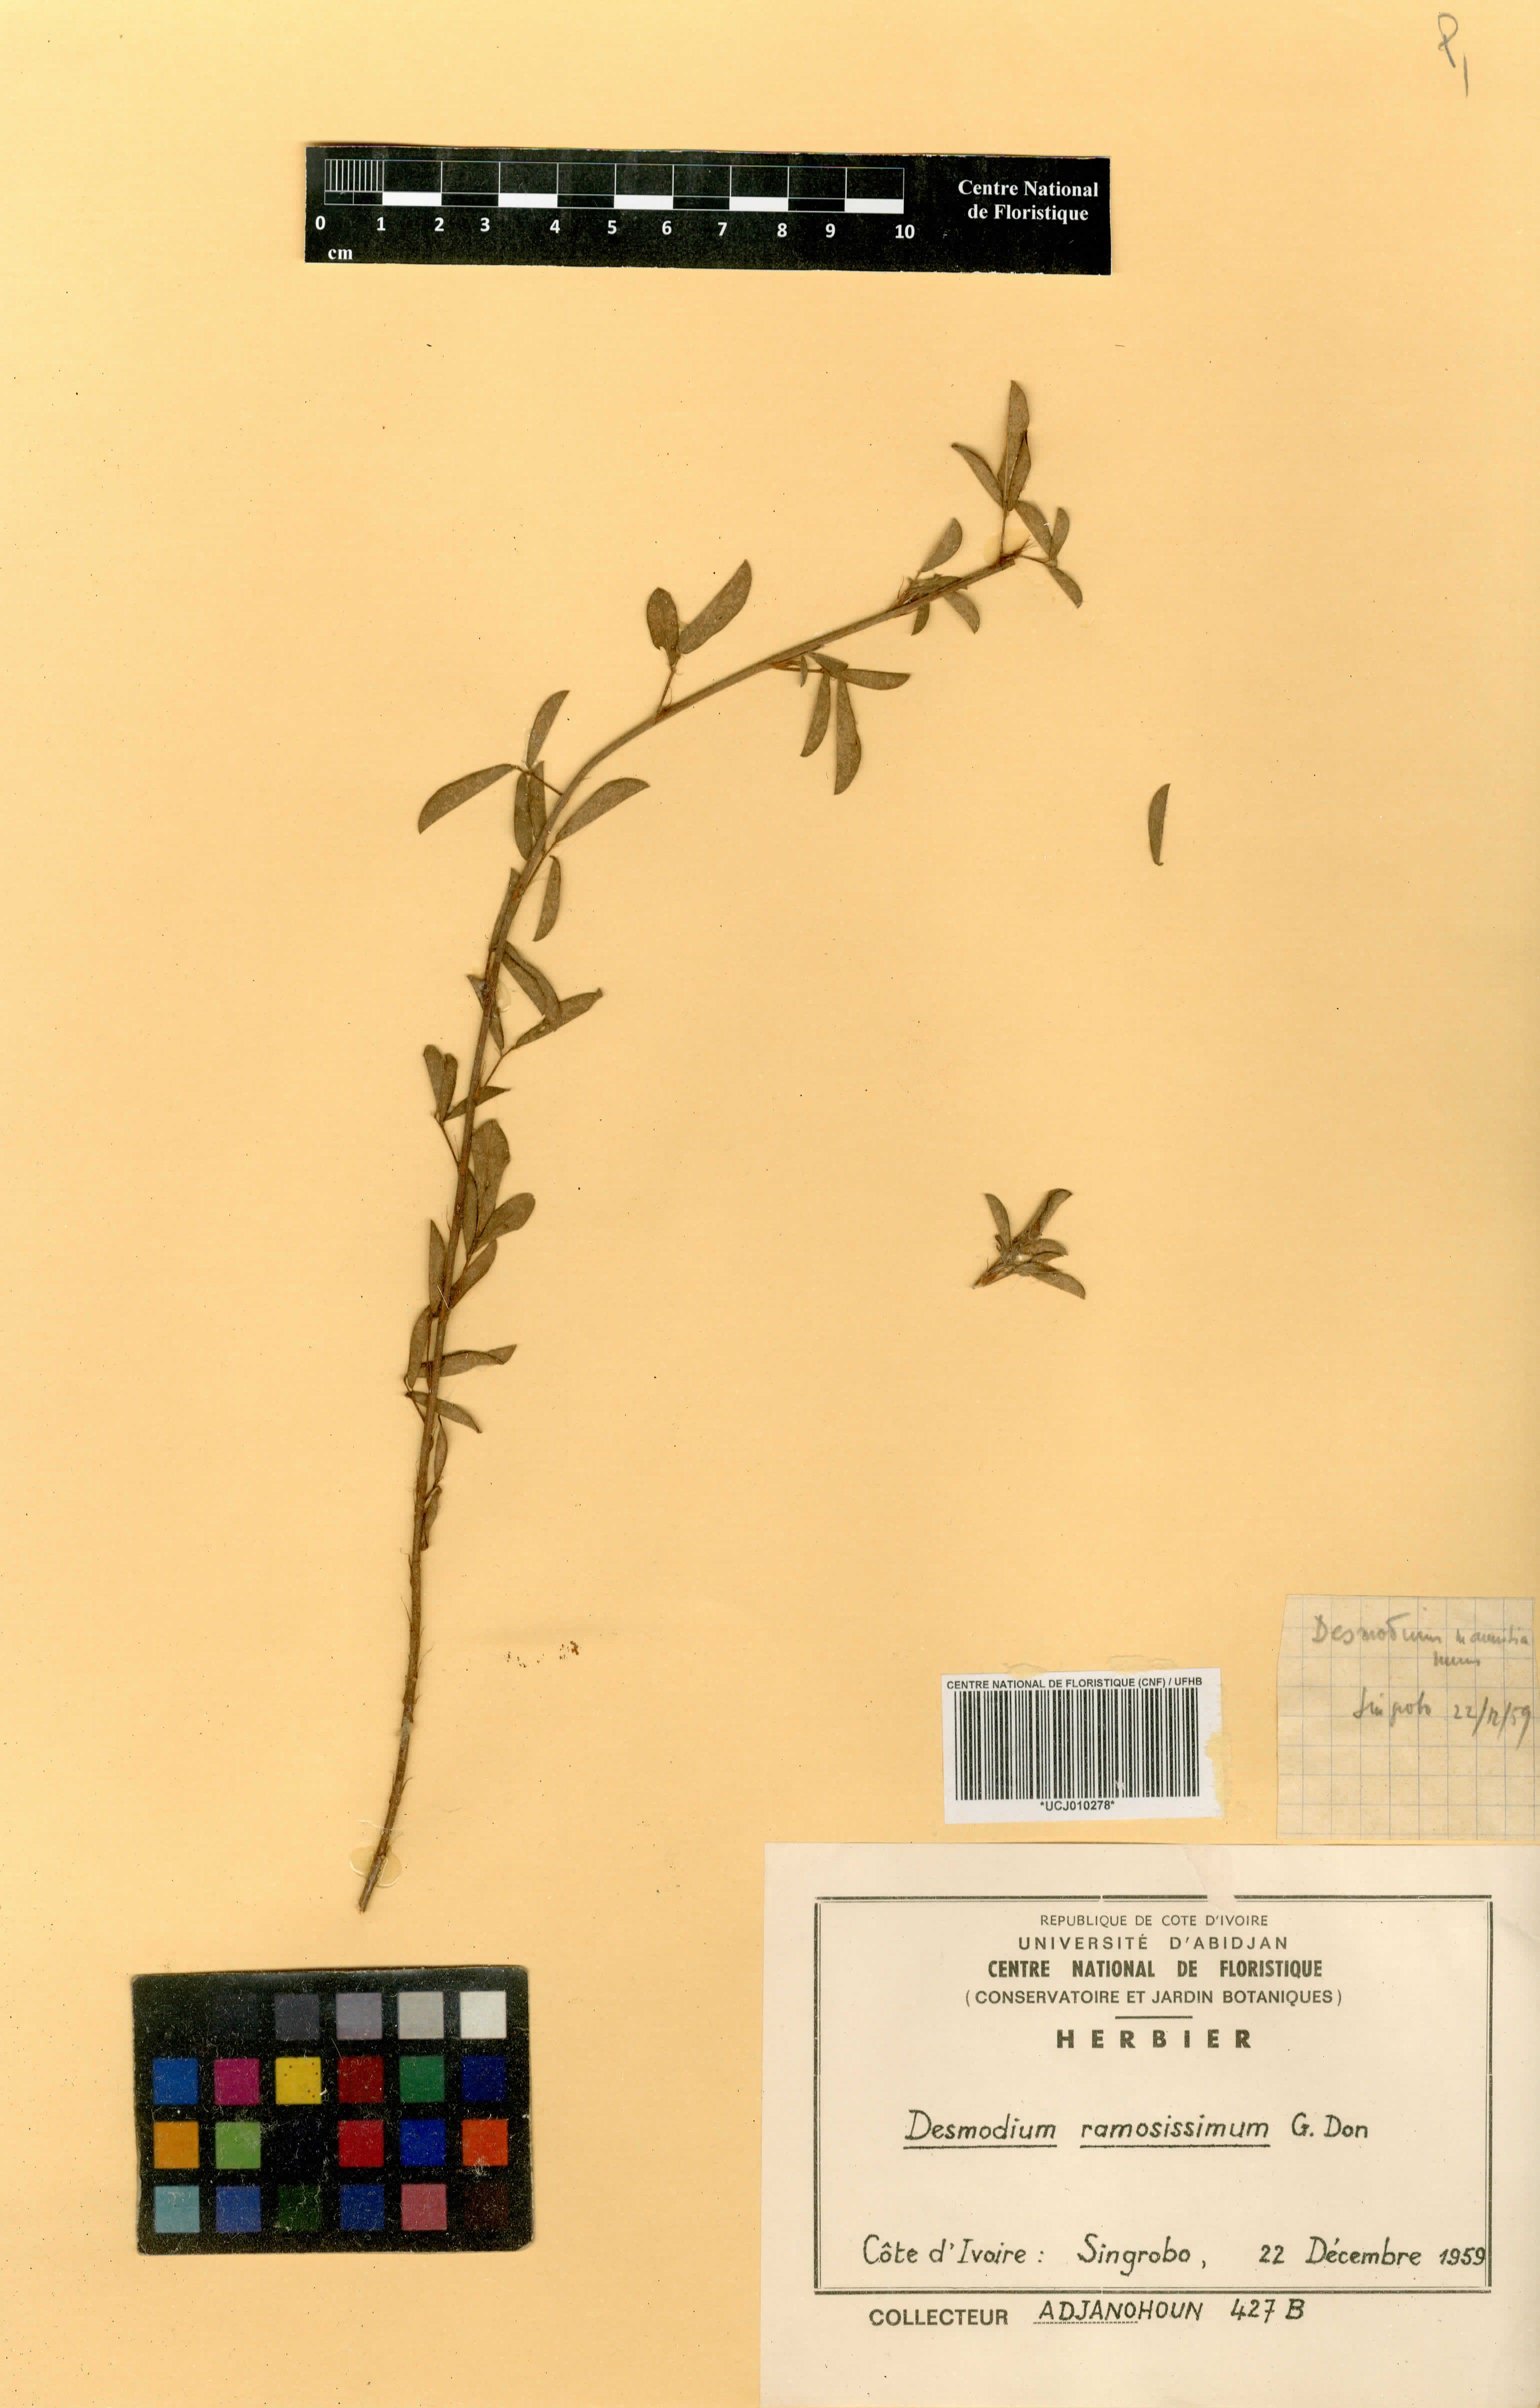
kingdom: Plantae
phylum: Tracheophyta
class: Magnoliopsida
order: Fabales
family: Fabaceae
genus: Grona
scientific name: Grona ramosissima
